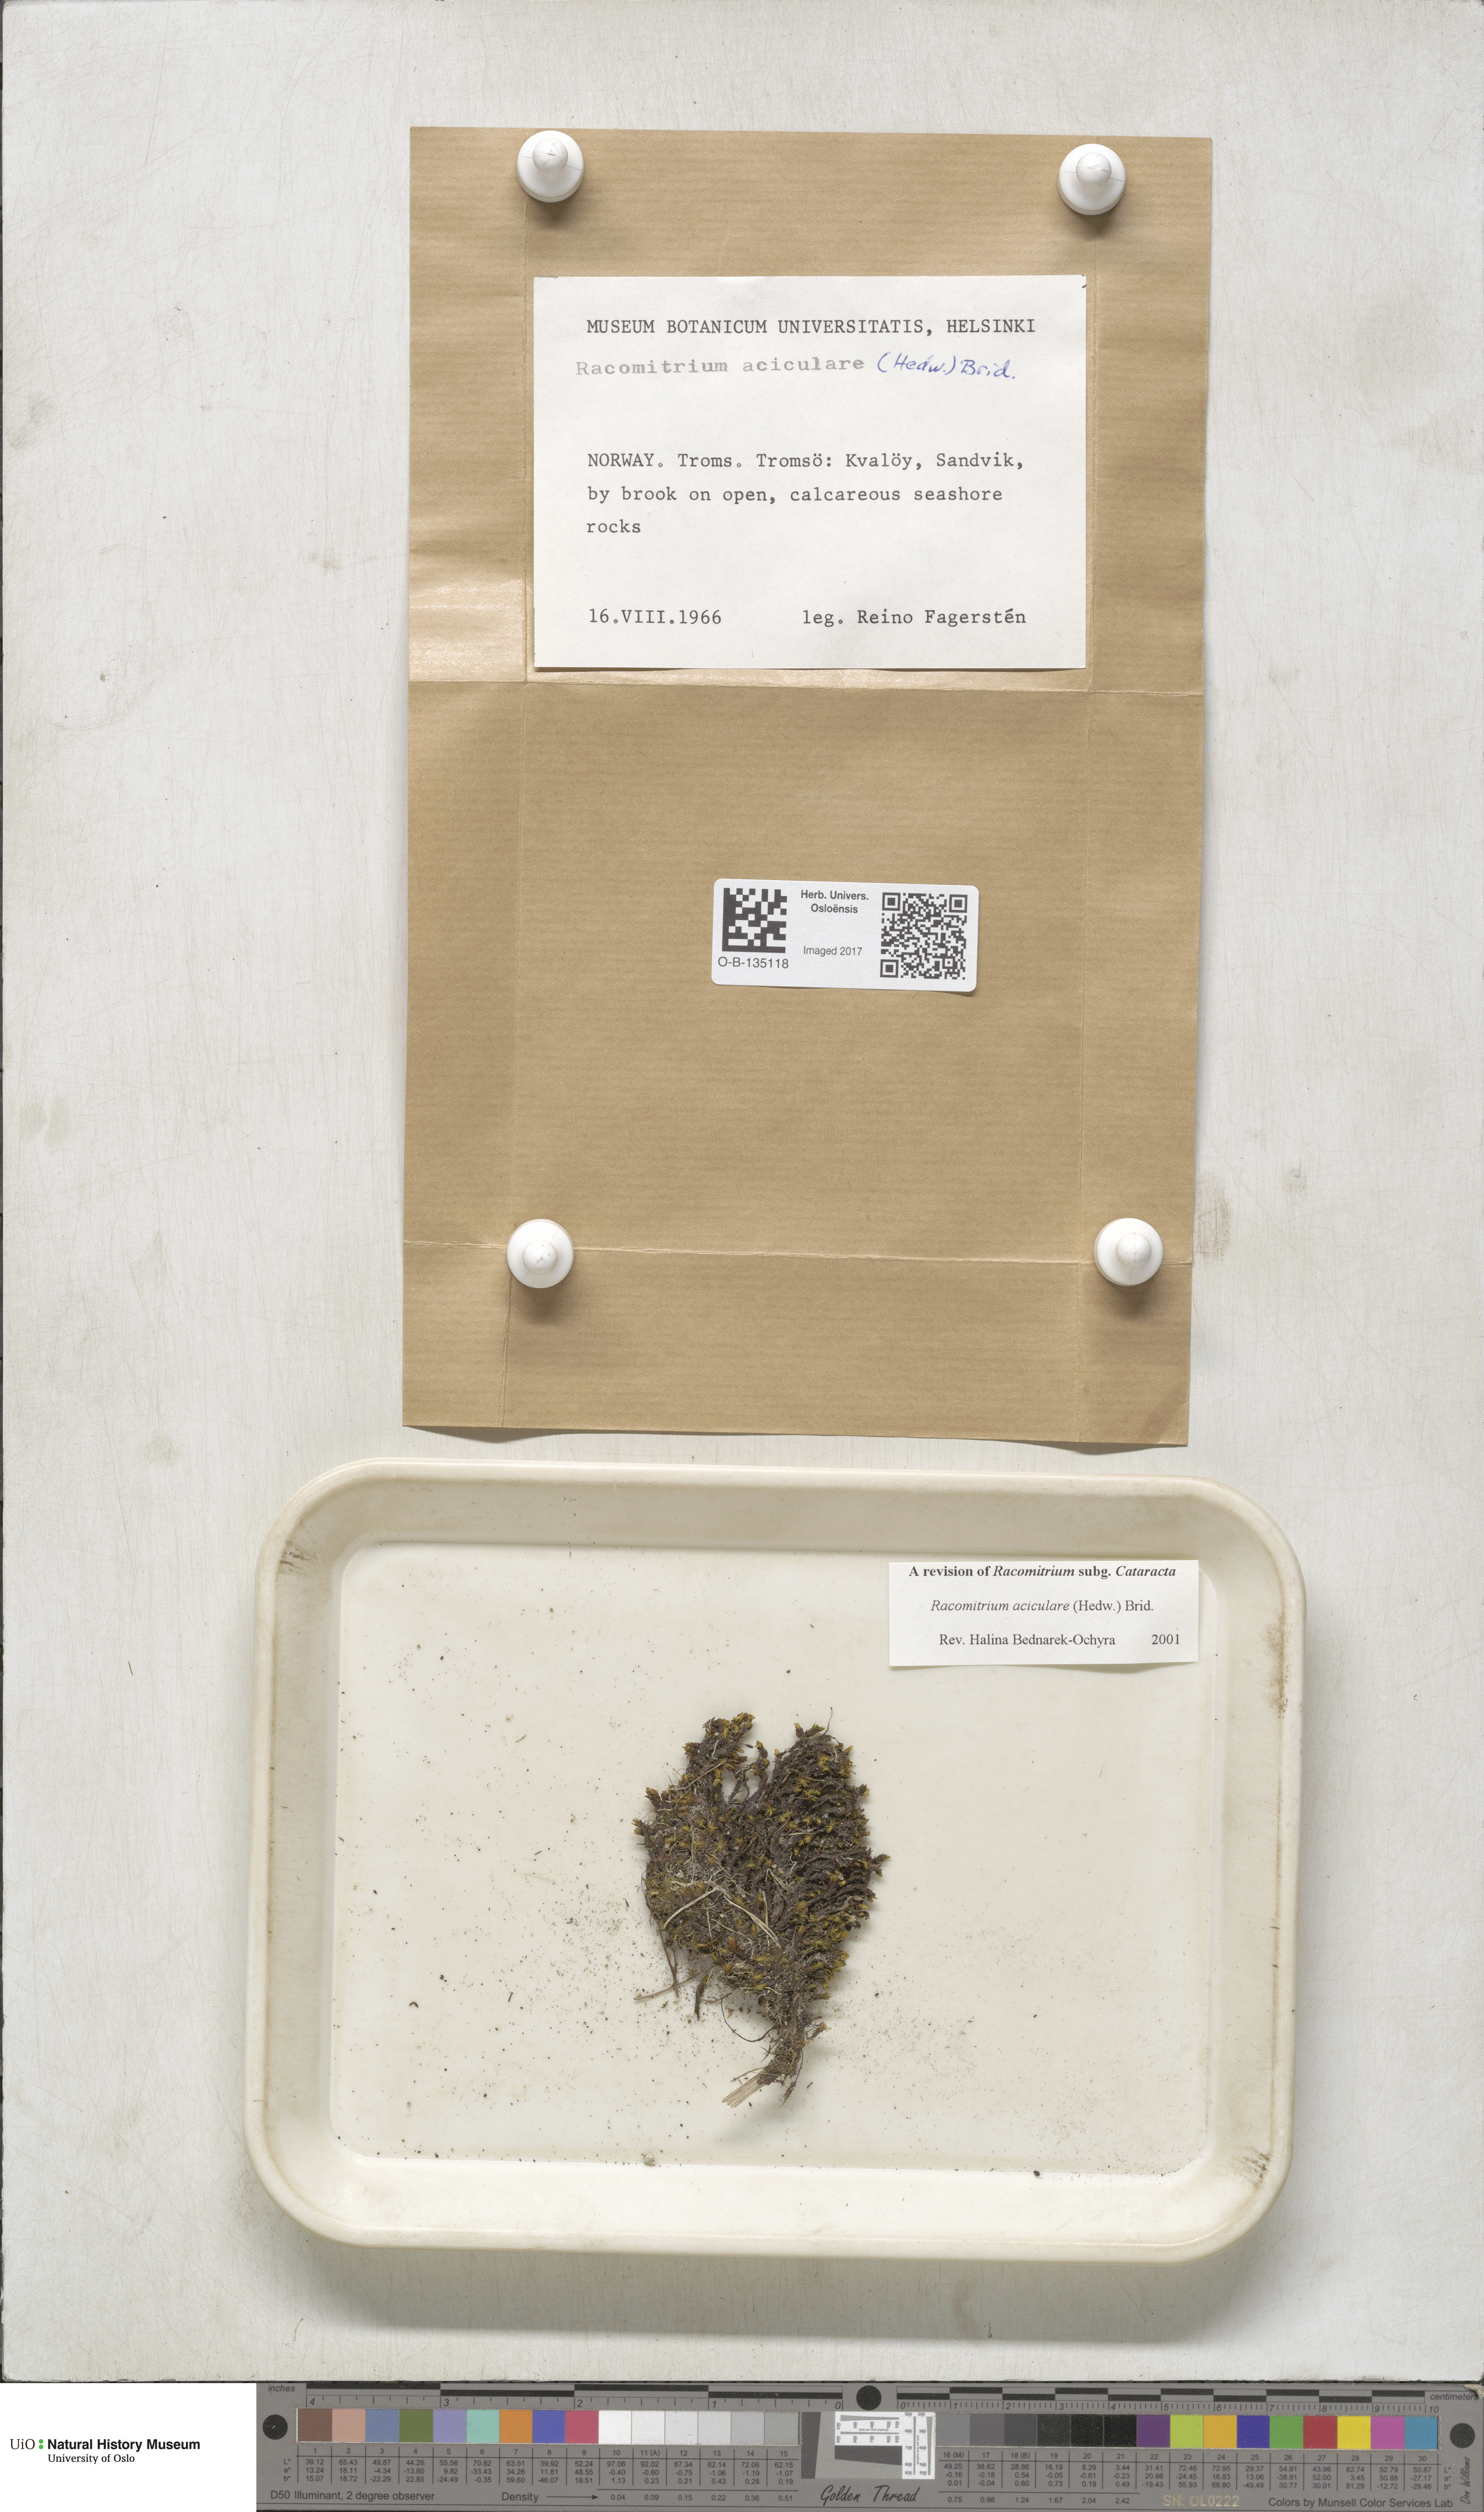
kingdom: Plantae
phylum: Bryophyta
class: Bryopsida
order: Grimmiales
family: Grimmiaceae
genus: Codriophorus
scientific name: Codriophorus acicularis
